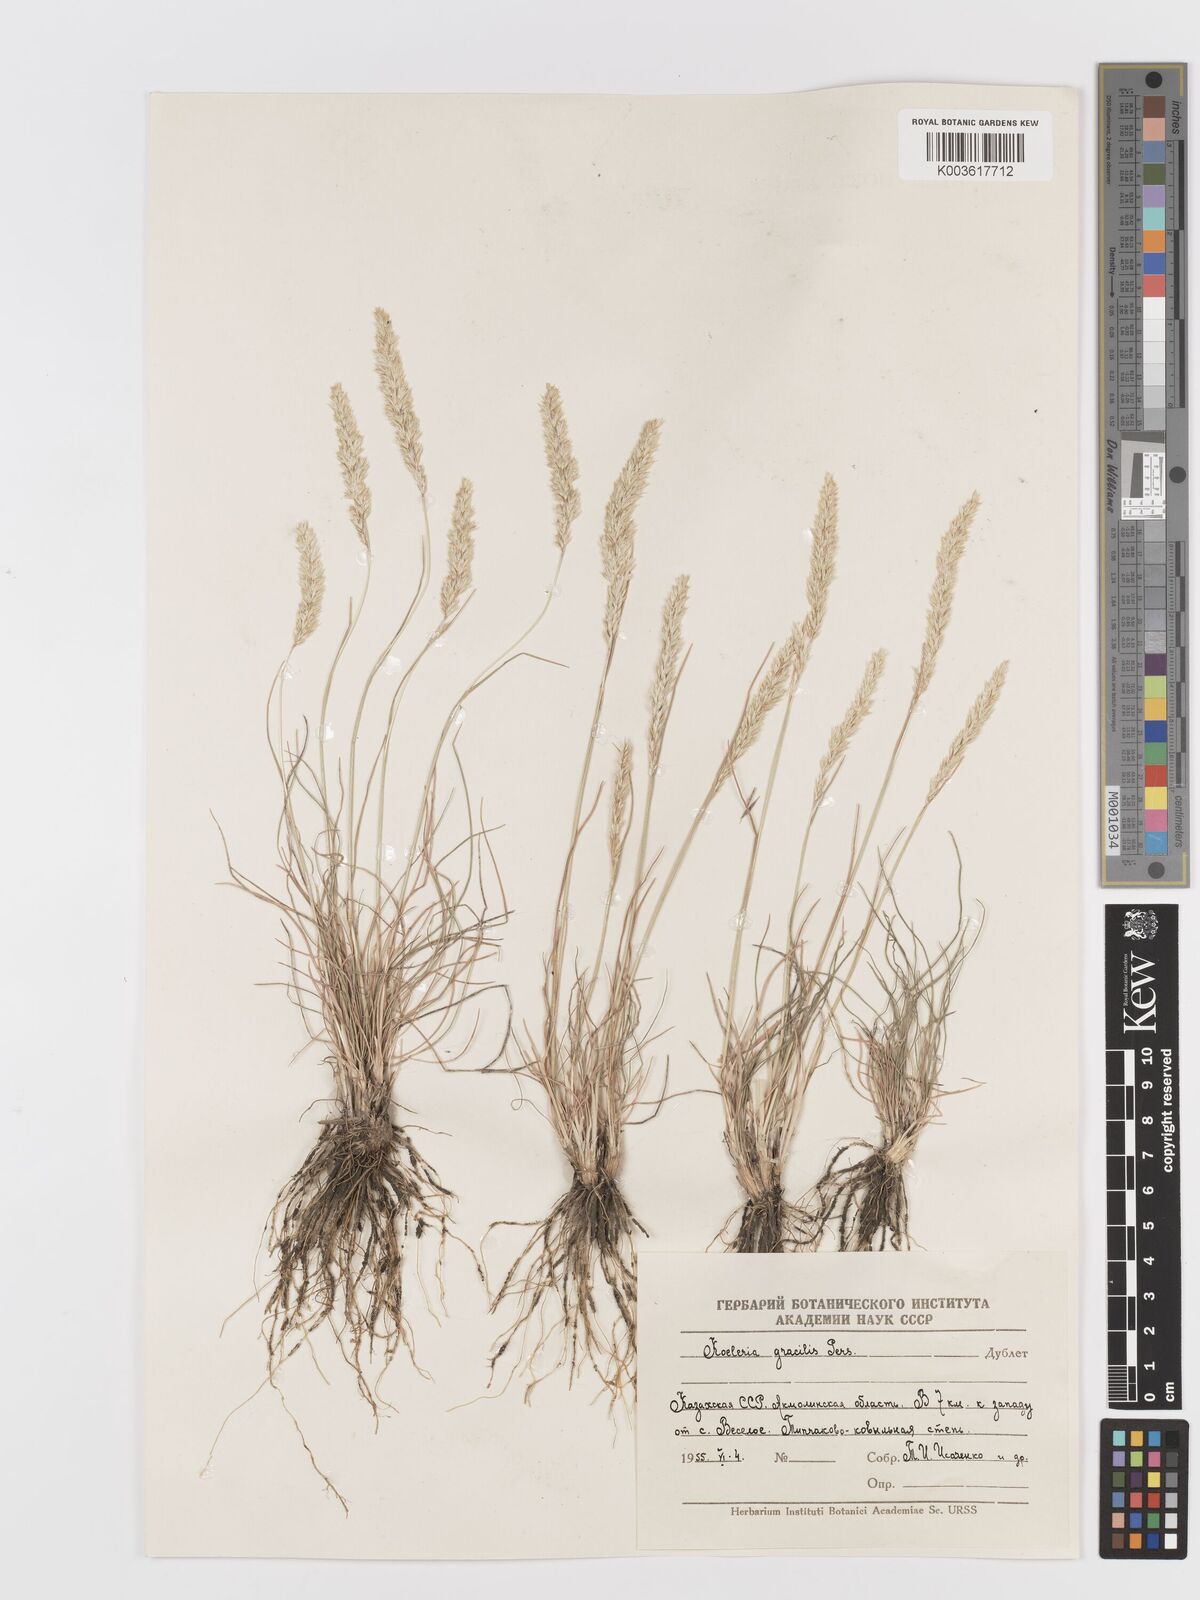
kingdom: Plantae
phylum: Tracheophyta
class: Liliopsida
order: Poales
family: Poaceae
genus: Koeleria
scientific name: Koeleria pyramidata
